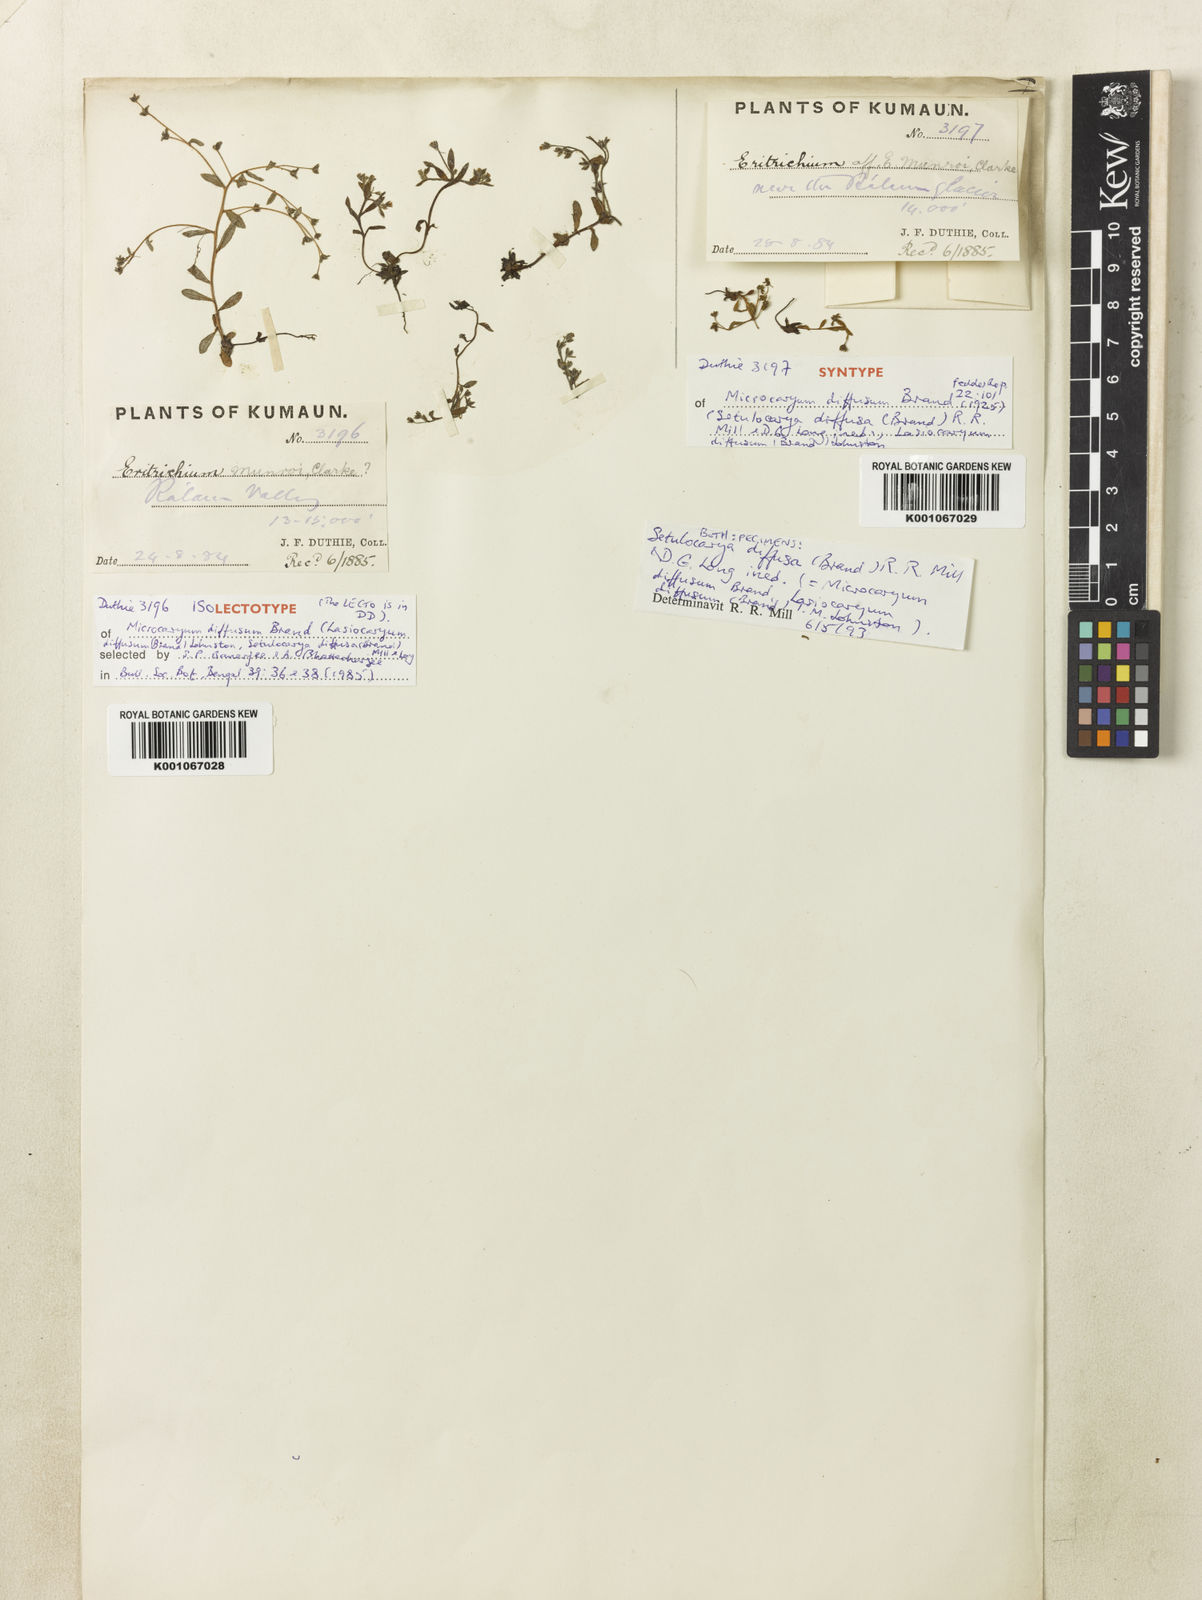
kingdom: Plantae
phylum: Tracheophyta
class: Magnoliopsida
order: Boraginales
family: Boraginaceae
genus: Lasiocaryum
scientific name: Lasiocaryum munroi
